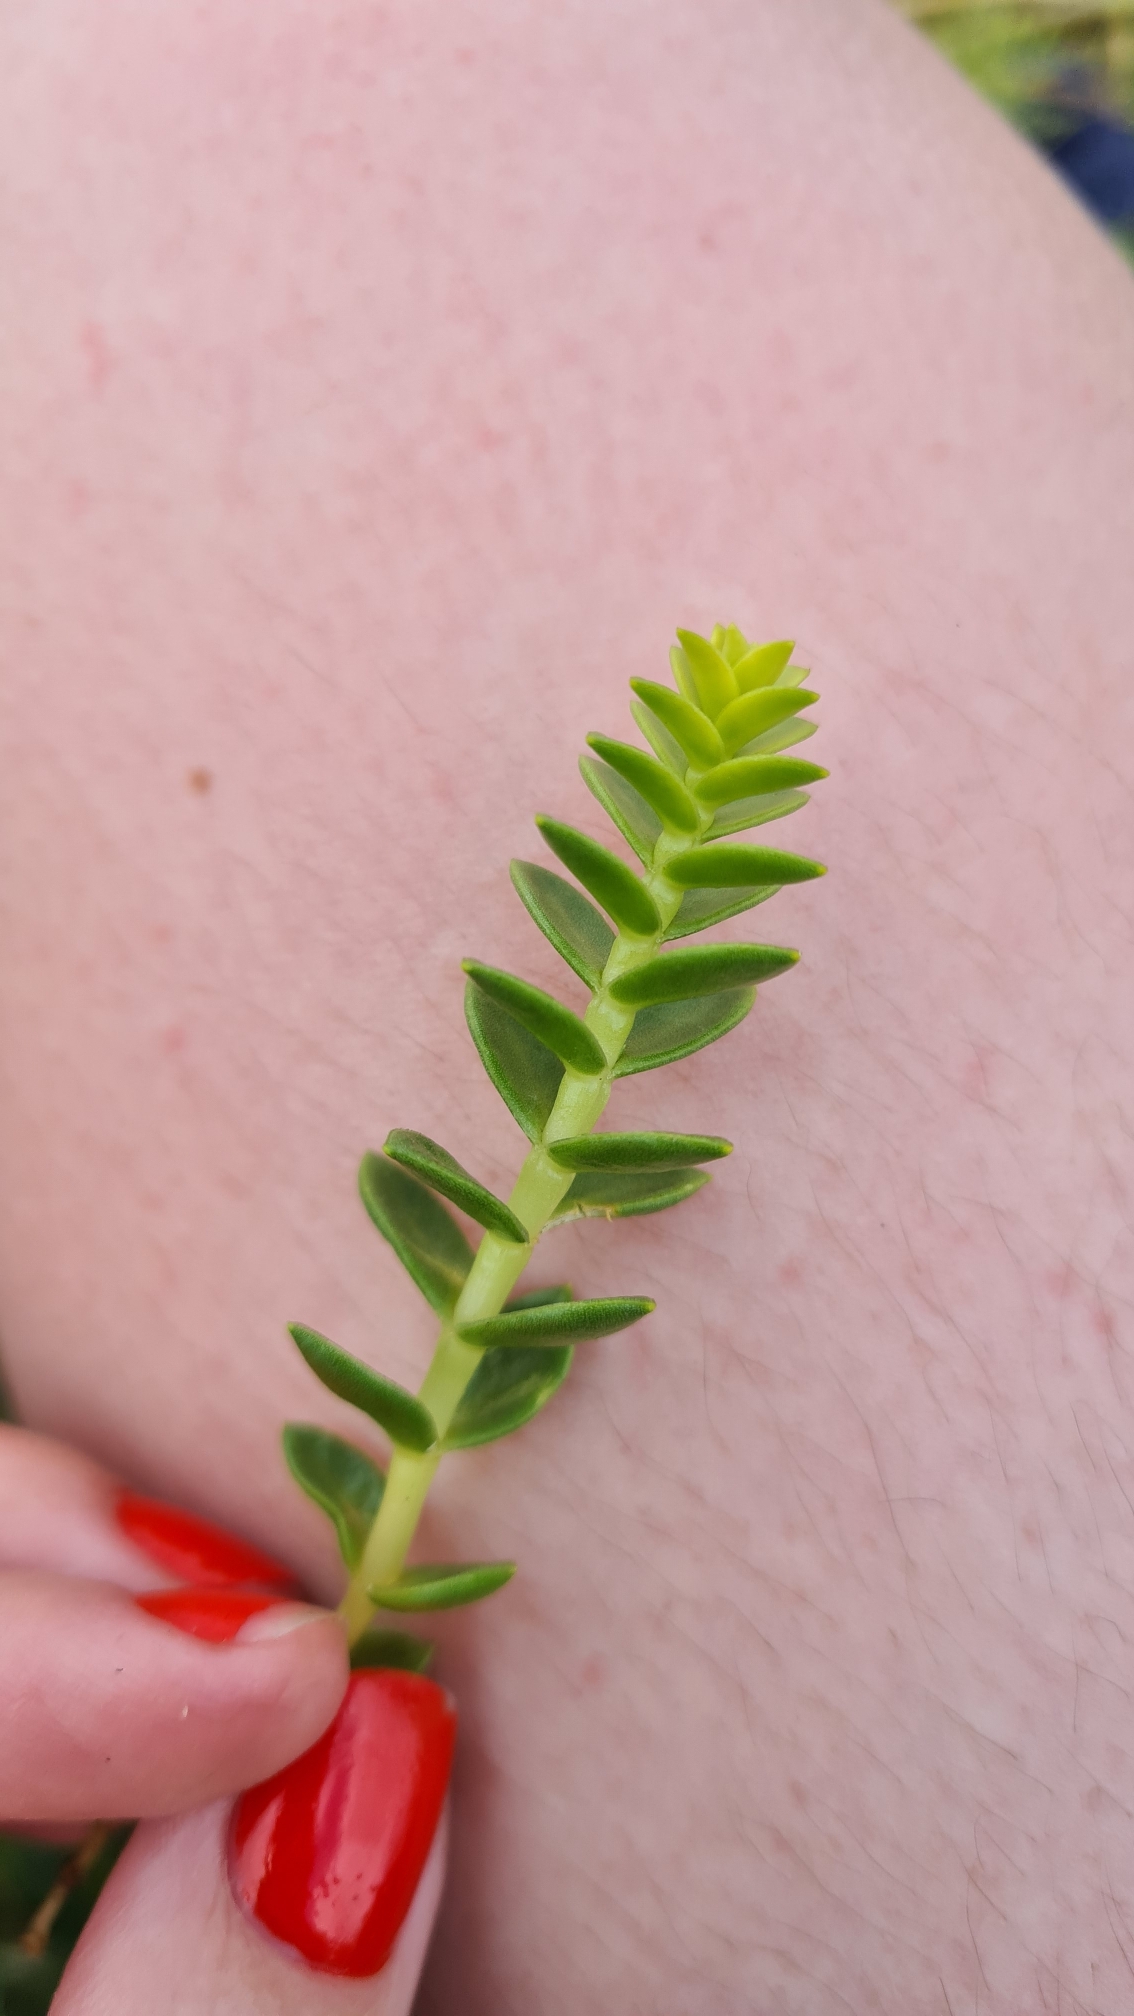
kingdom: Plantae
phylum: Tracheophyta
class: Magnoliopsida
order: Caryophyllales
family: Caryophyllaceae
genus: Honckenya
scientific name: Honckenya peploides
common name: Strandarve
